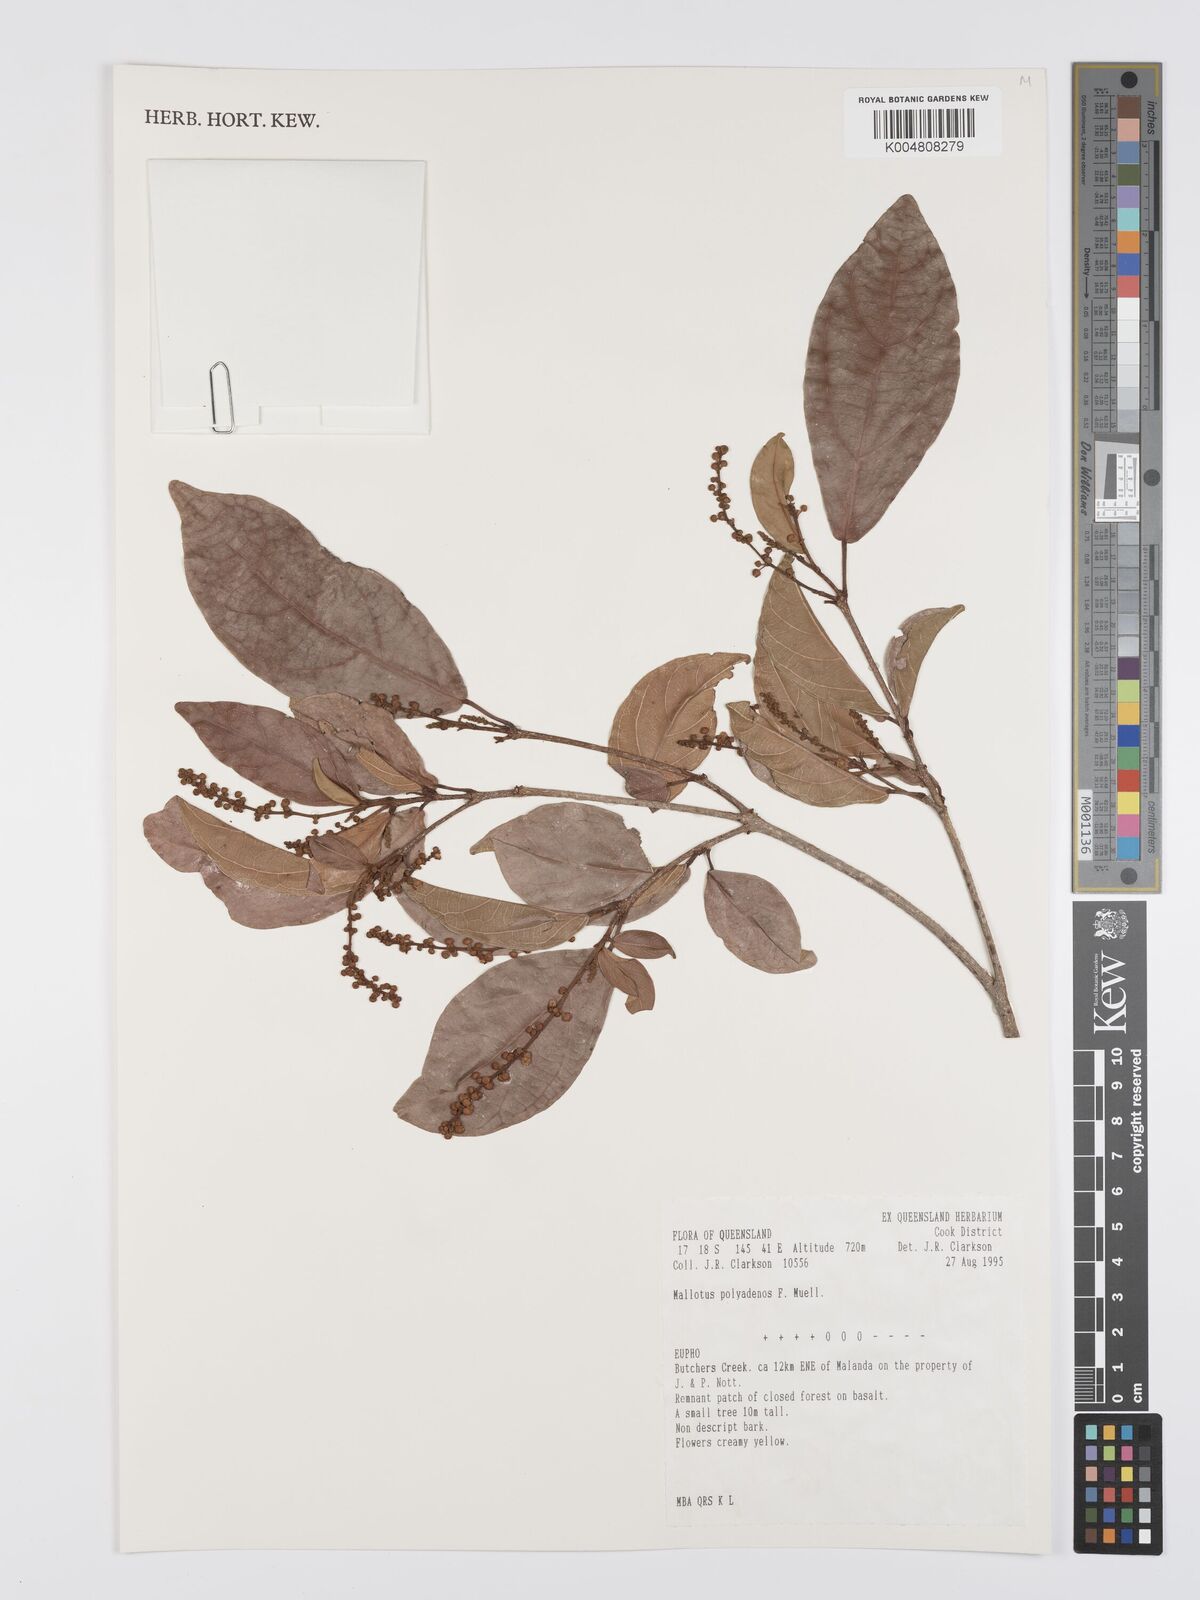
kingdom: Plantae
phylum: Tracheophyta
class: Magnoliopsida
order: Malpighiales
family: Euphorbiaceae
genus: Mallotus
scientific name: Mallotus polyadenos
